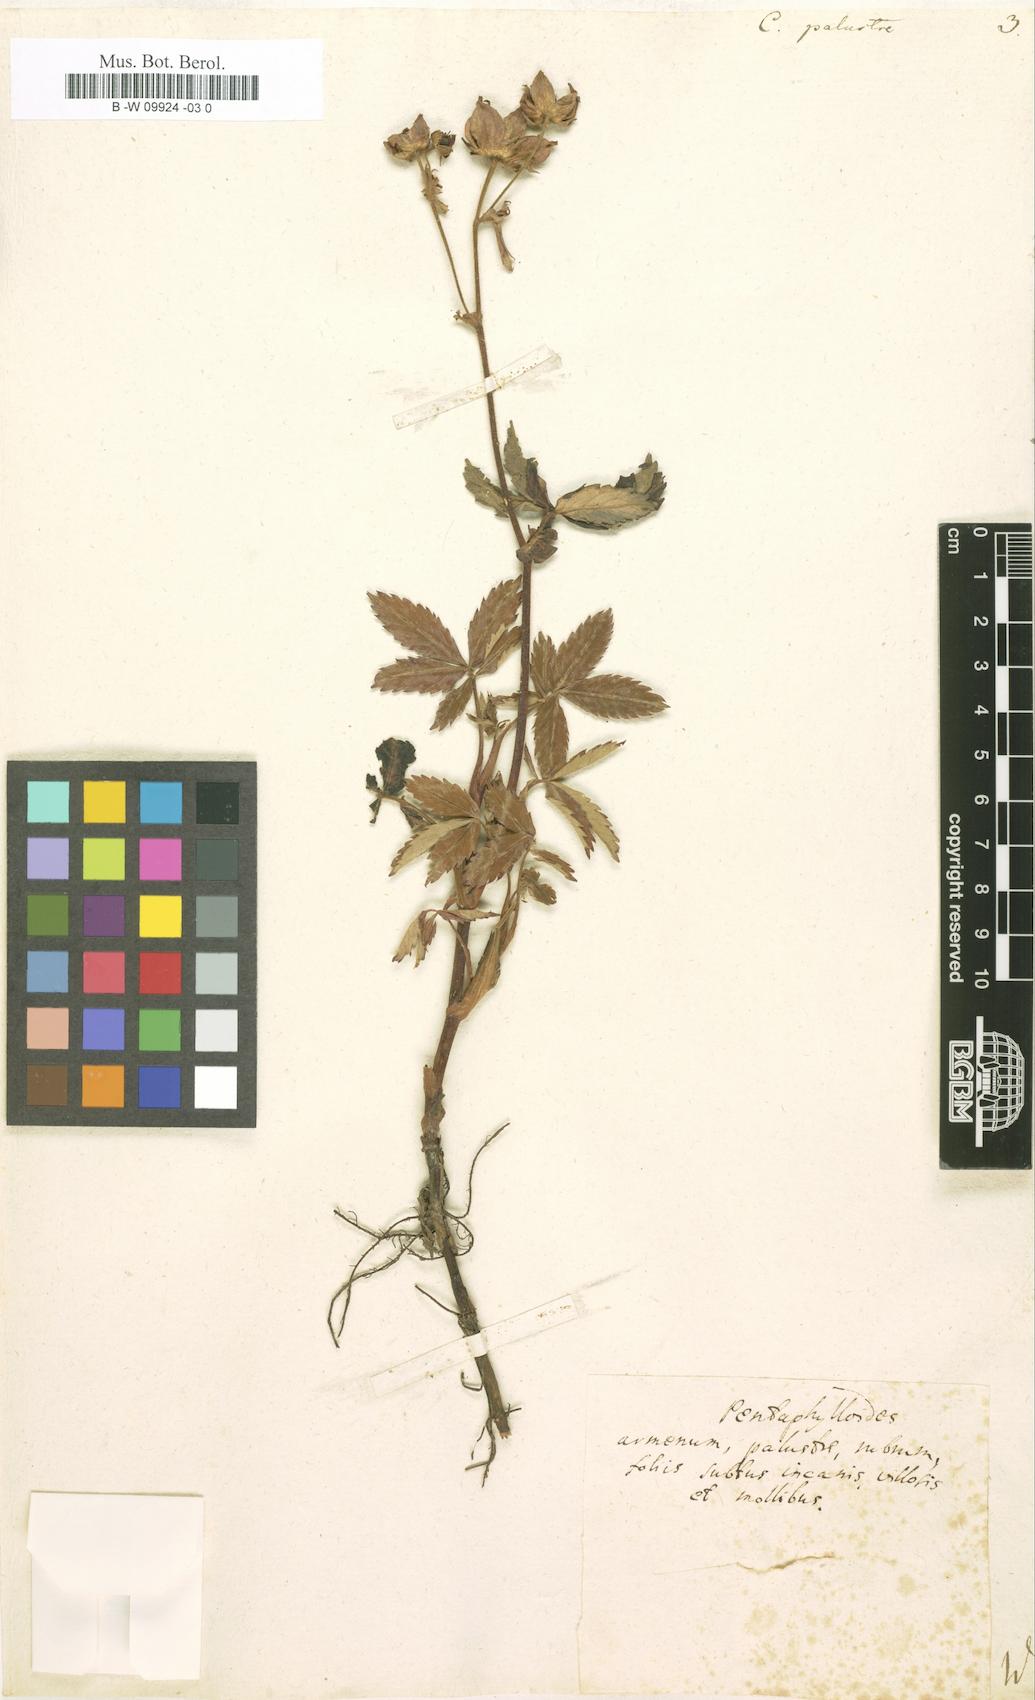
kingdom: Plantae
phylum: Tracheophyta
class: Magnoliopsida
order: Rosales
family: Rosaceae
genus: Comarum
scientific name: Comarum palustre
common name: Marsh cinquefoil
